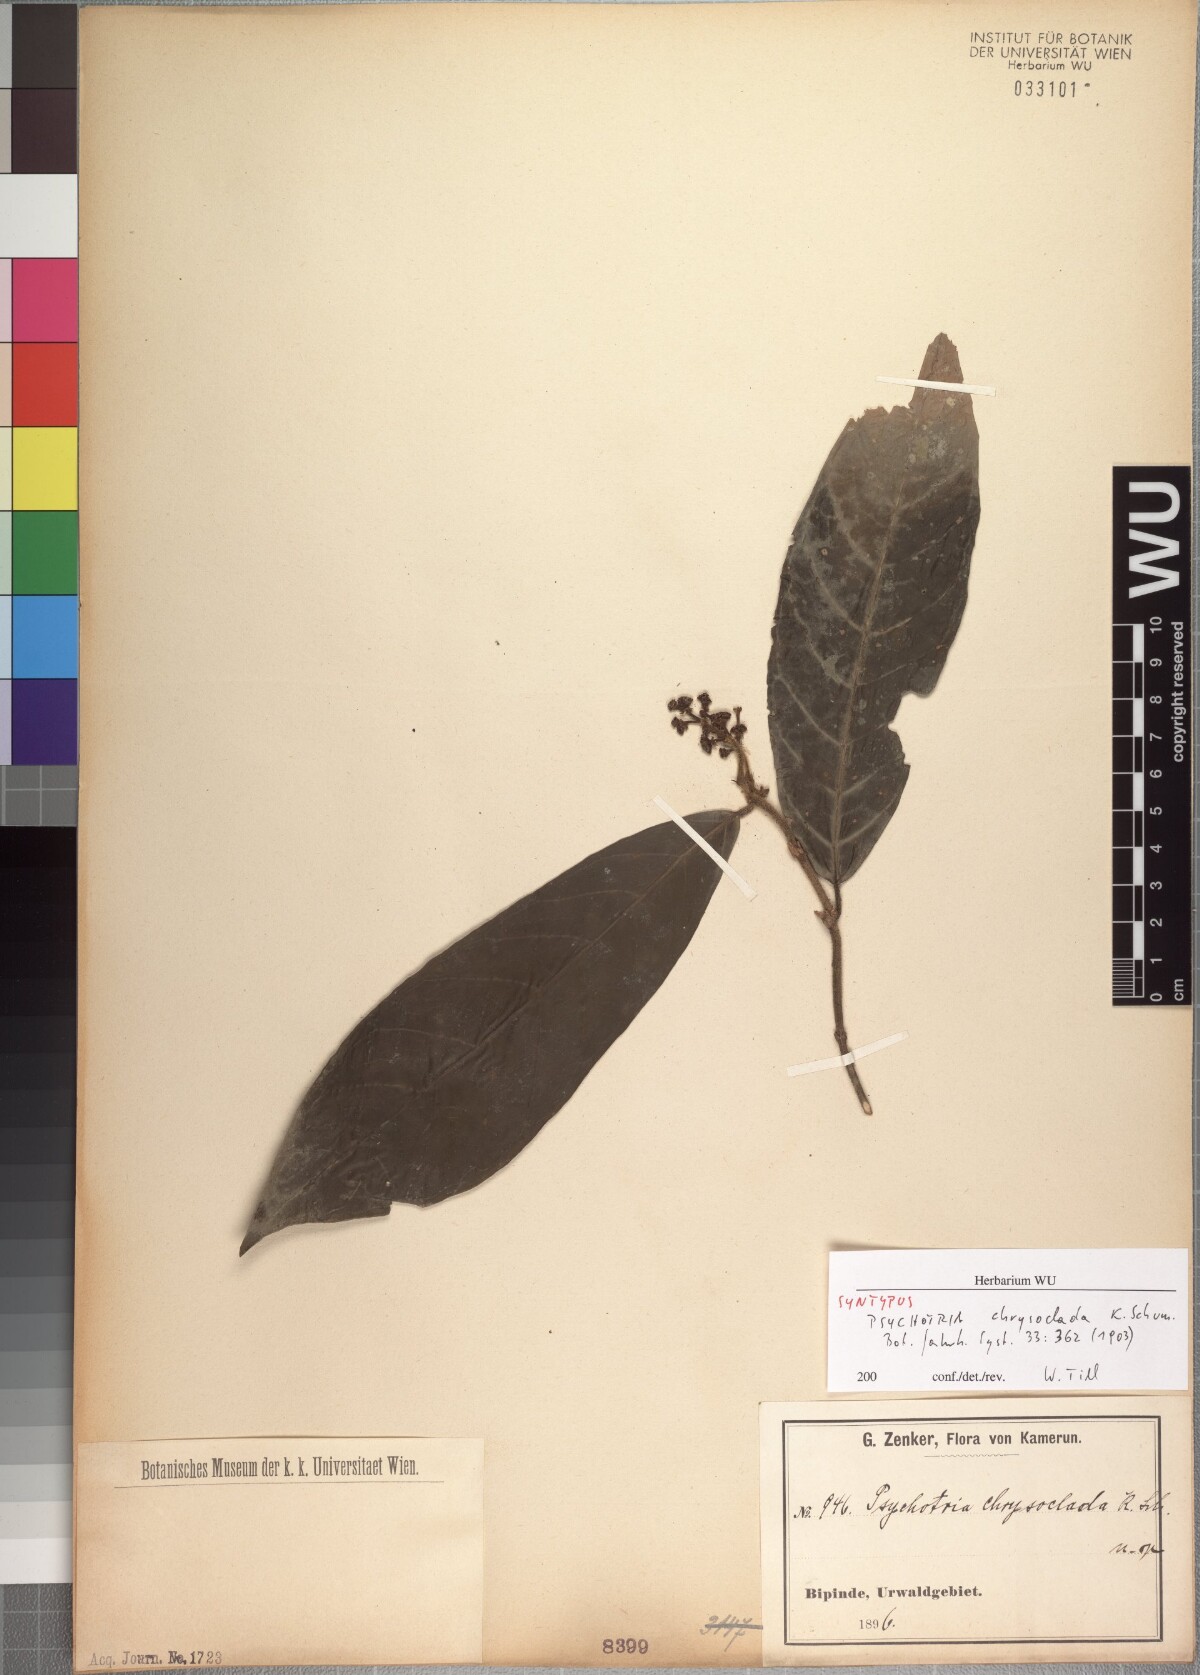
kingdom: Plantae
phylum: Tracheophyta
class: Magnoliopsida
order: Gentianales
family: Rubiaceae
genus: Chassalia
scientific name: Chassalia chrysoclada
